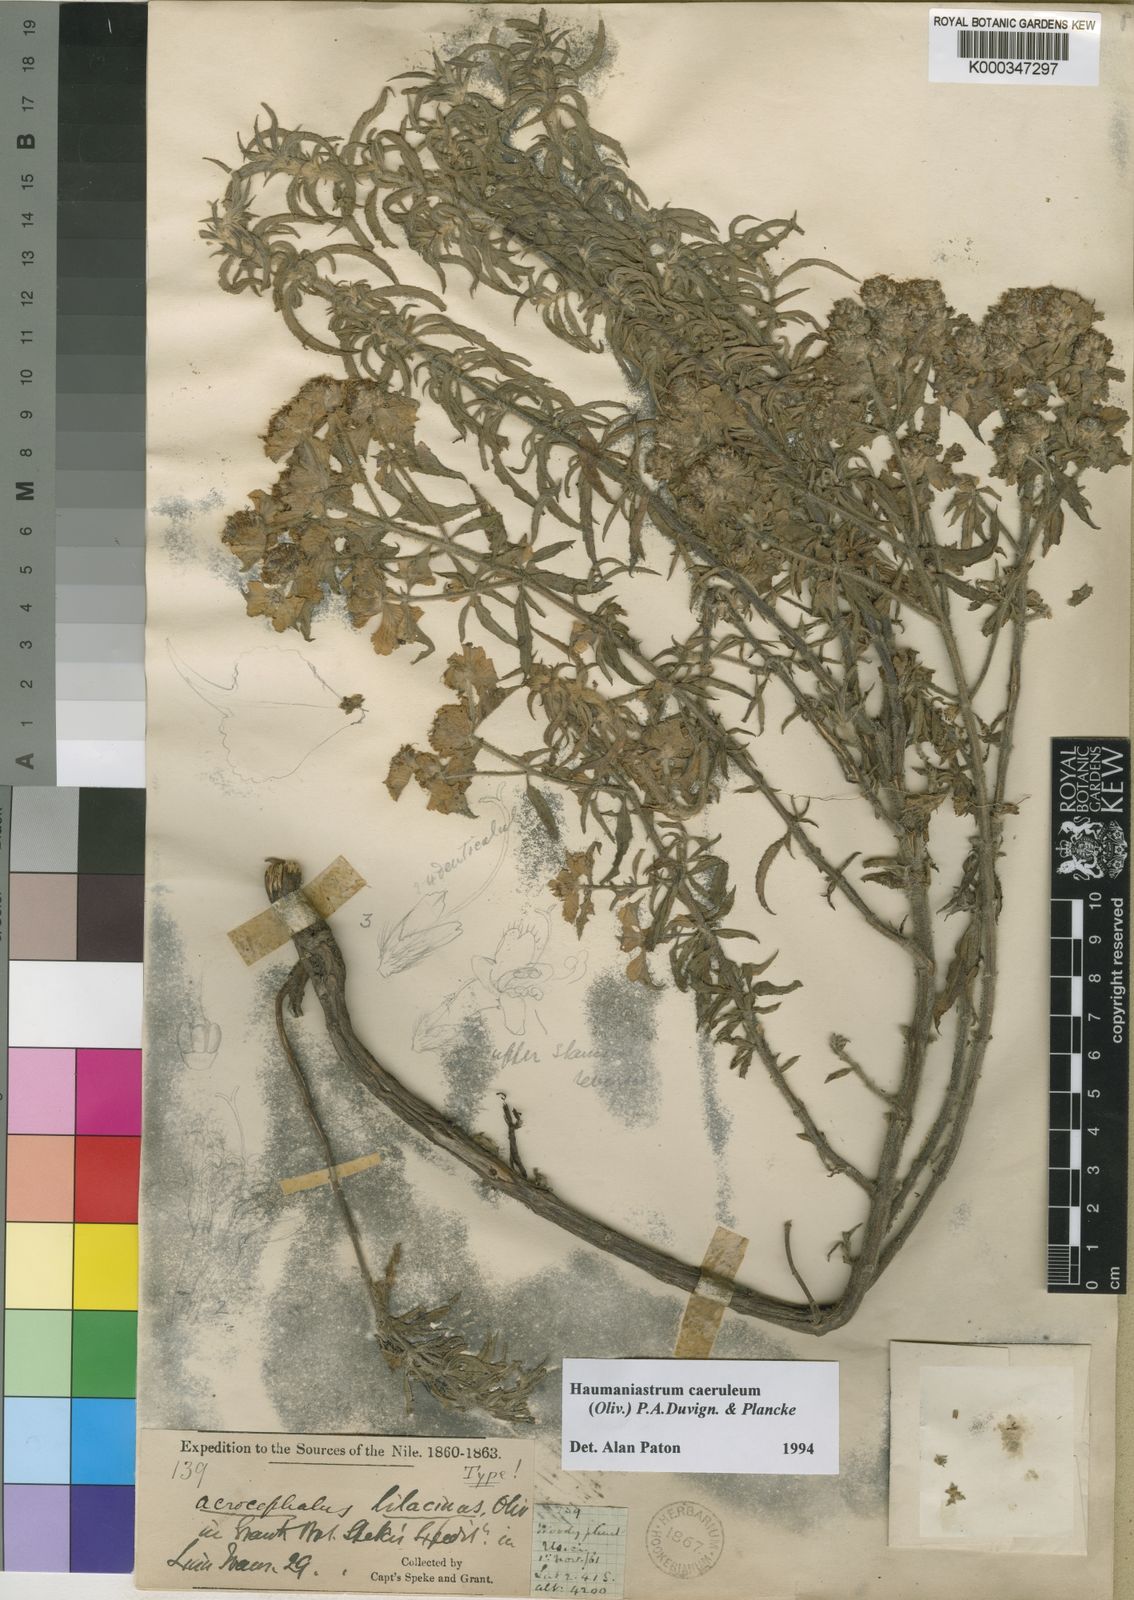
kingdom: Plantae
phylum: Tracheophyta
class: Magnoliopsida
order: Lamiales
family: Lamiaceae
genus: Haumaniastrum
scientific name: Haumaniastrum caeruleum
